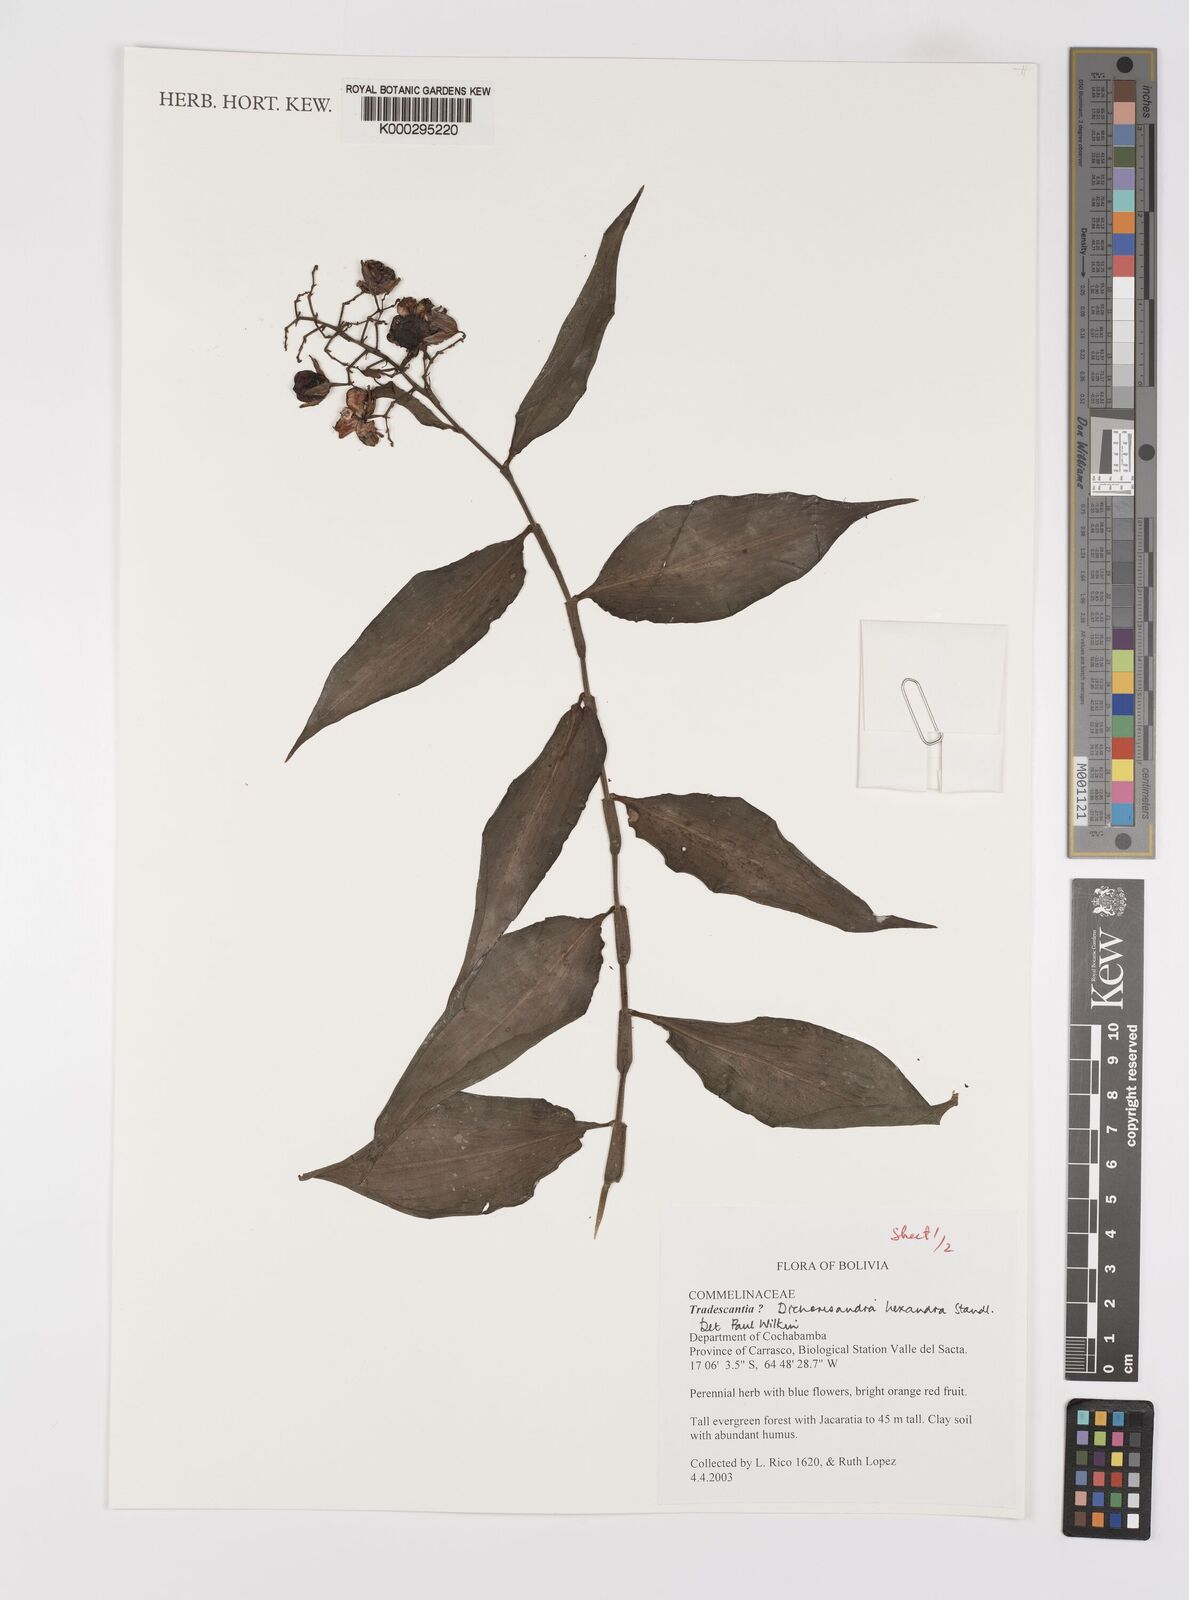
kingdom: Plantae
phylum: Tracheophyta
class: Liliopsida
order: Commelinales
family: Commelinaceae
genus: Dichorisandra
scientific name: Dichorisandra
